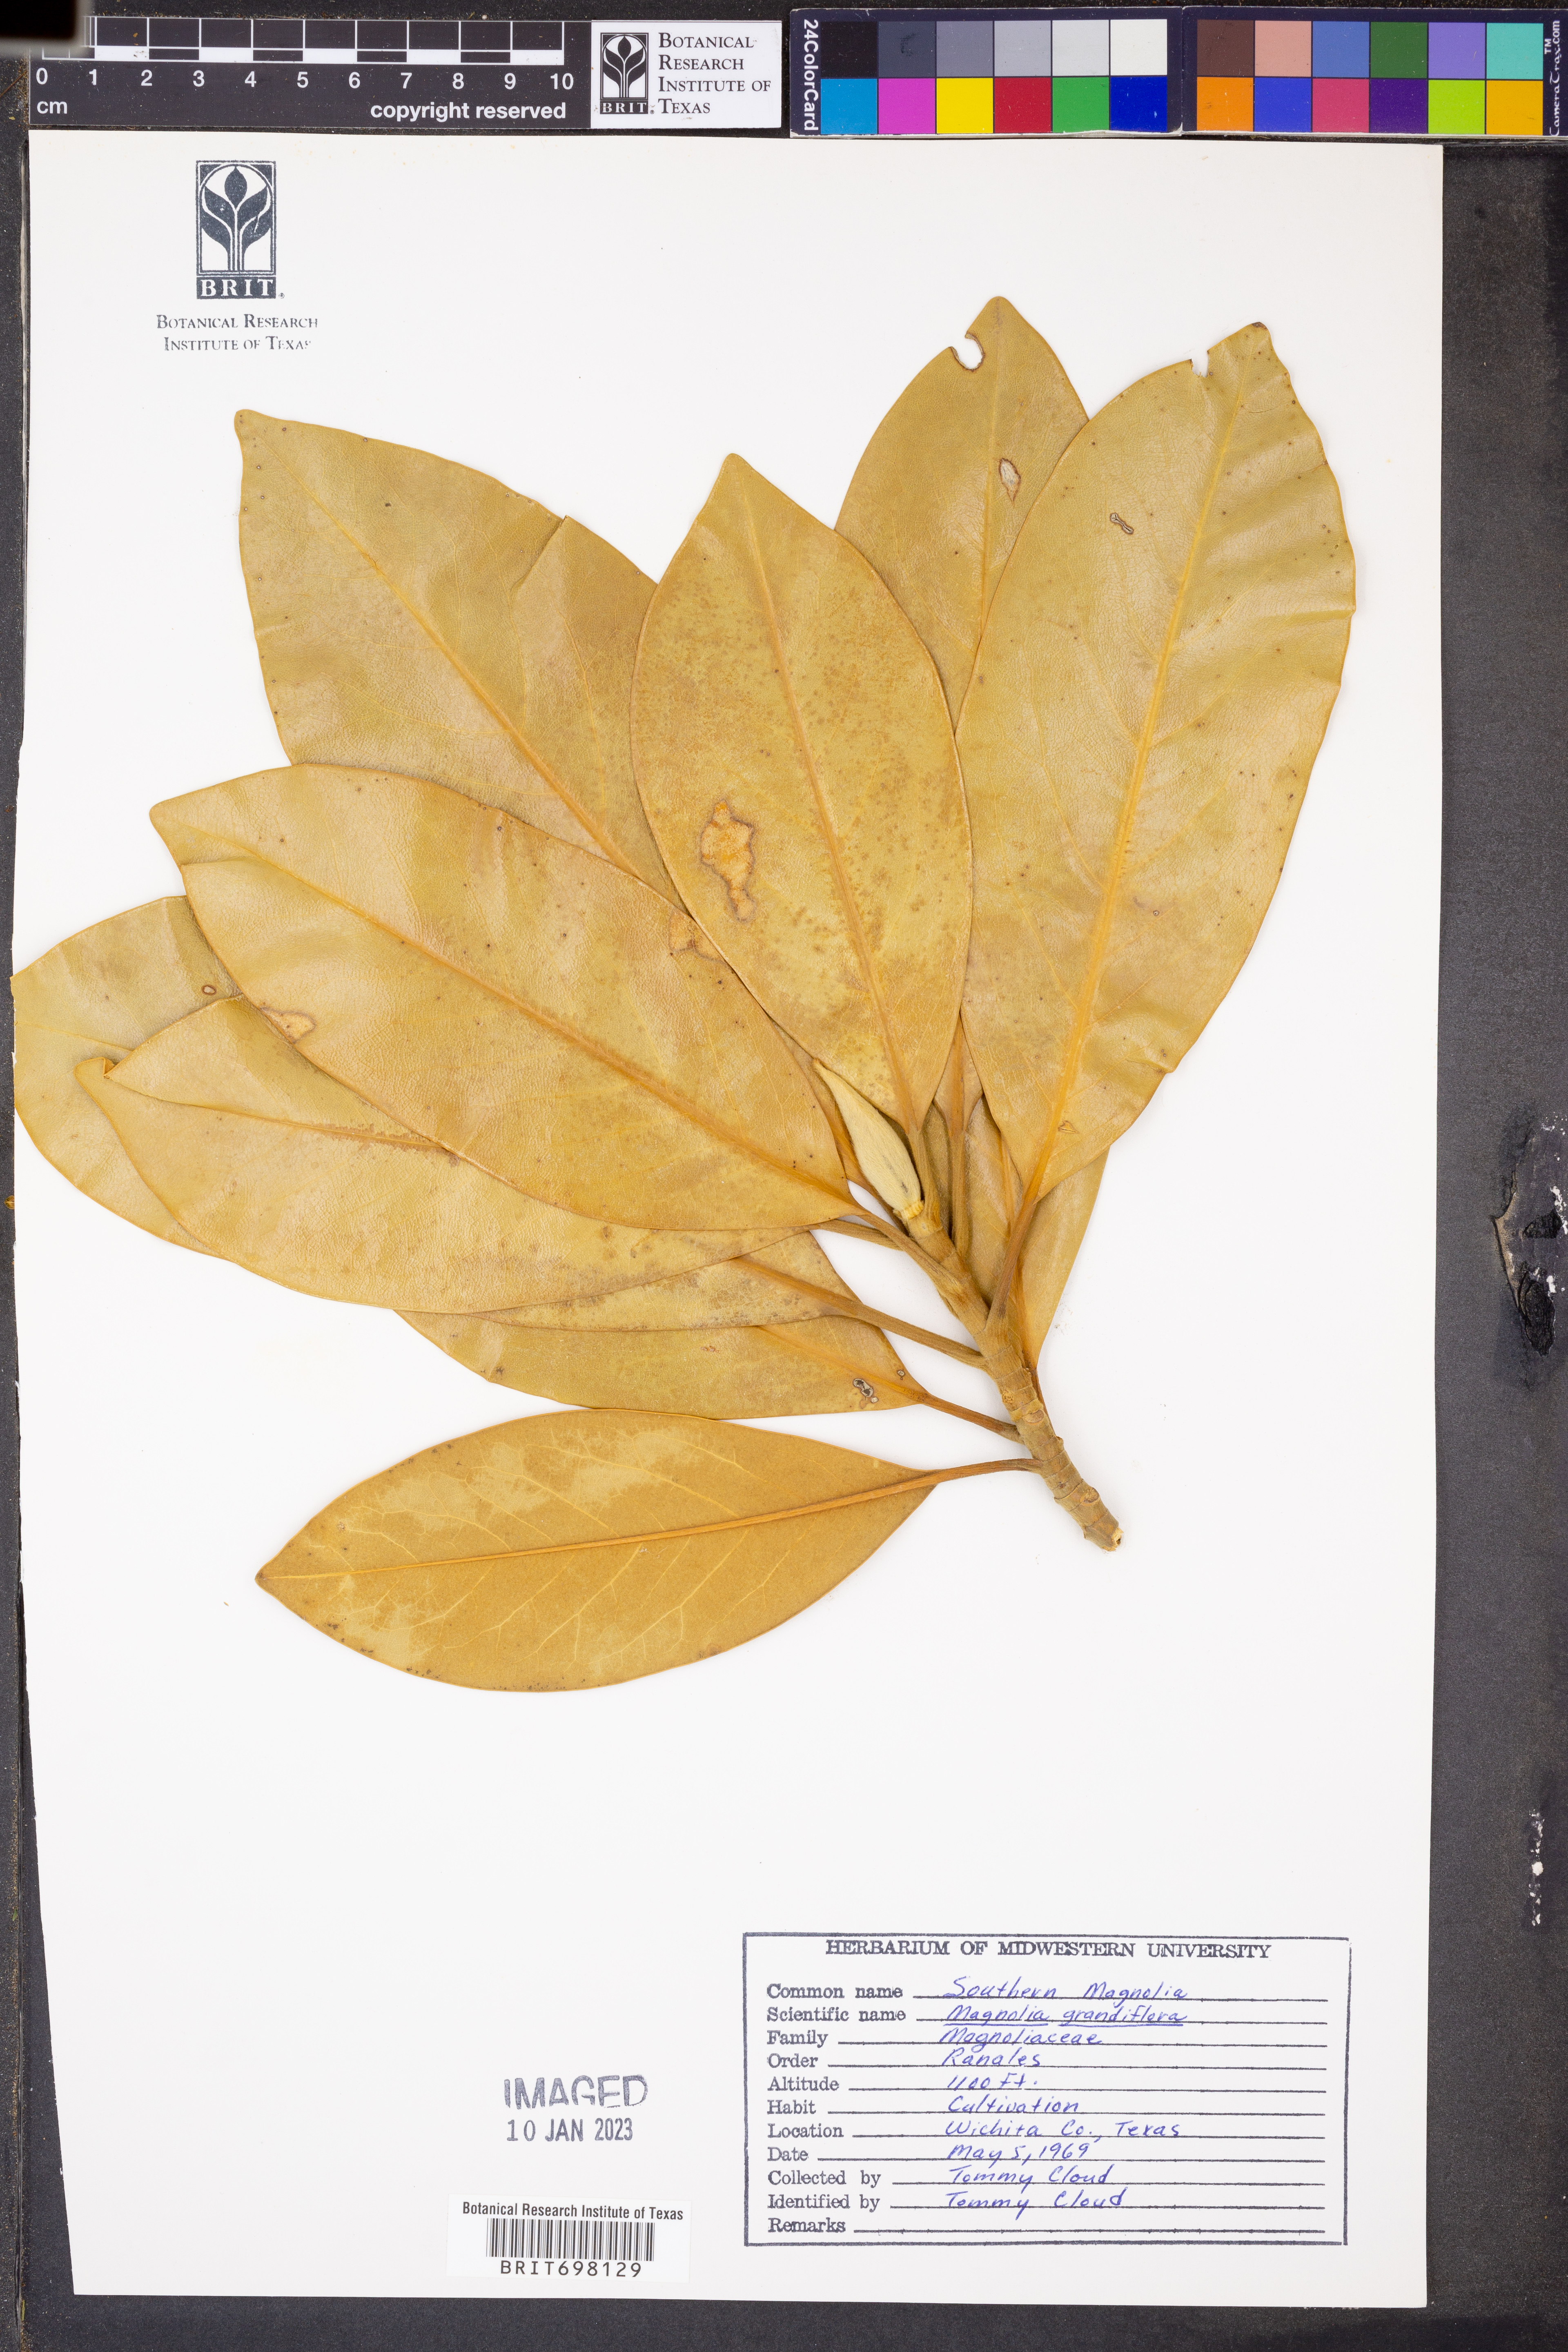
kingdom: Plantae
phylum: Tracheophyta
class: Magnoliopsida
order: Magnoliales
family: Magnoliaceae
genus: Magnolia
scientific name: Magnolia grandiflora
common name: Southern magnolia
